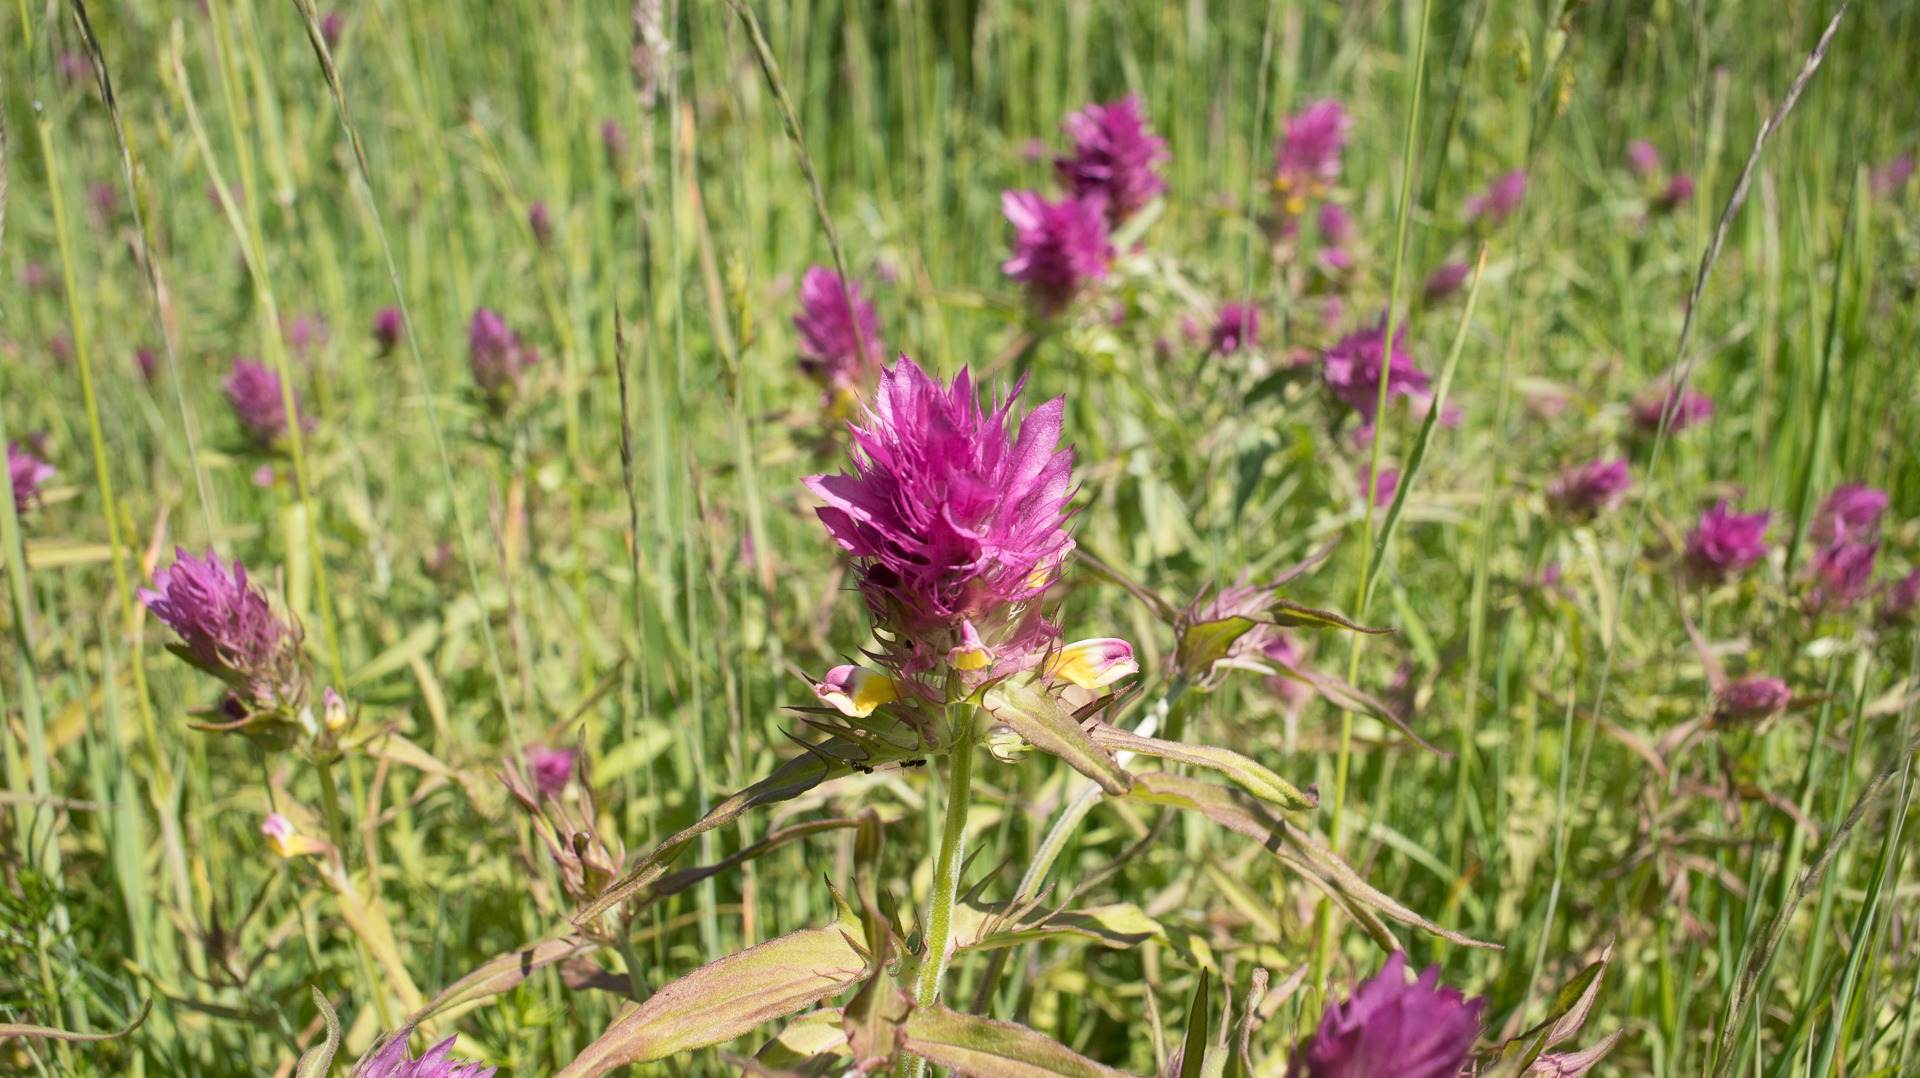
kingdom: Plantae
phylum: Tracheophyta
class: Magnoliopsida
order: Lamiales
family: Orobanchaceae
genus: Melampyrum
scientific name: Melampyrum arvense
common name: Ager-kohvede
